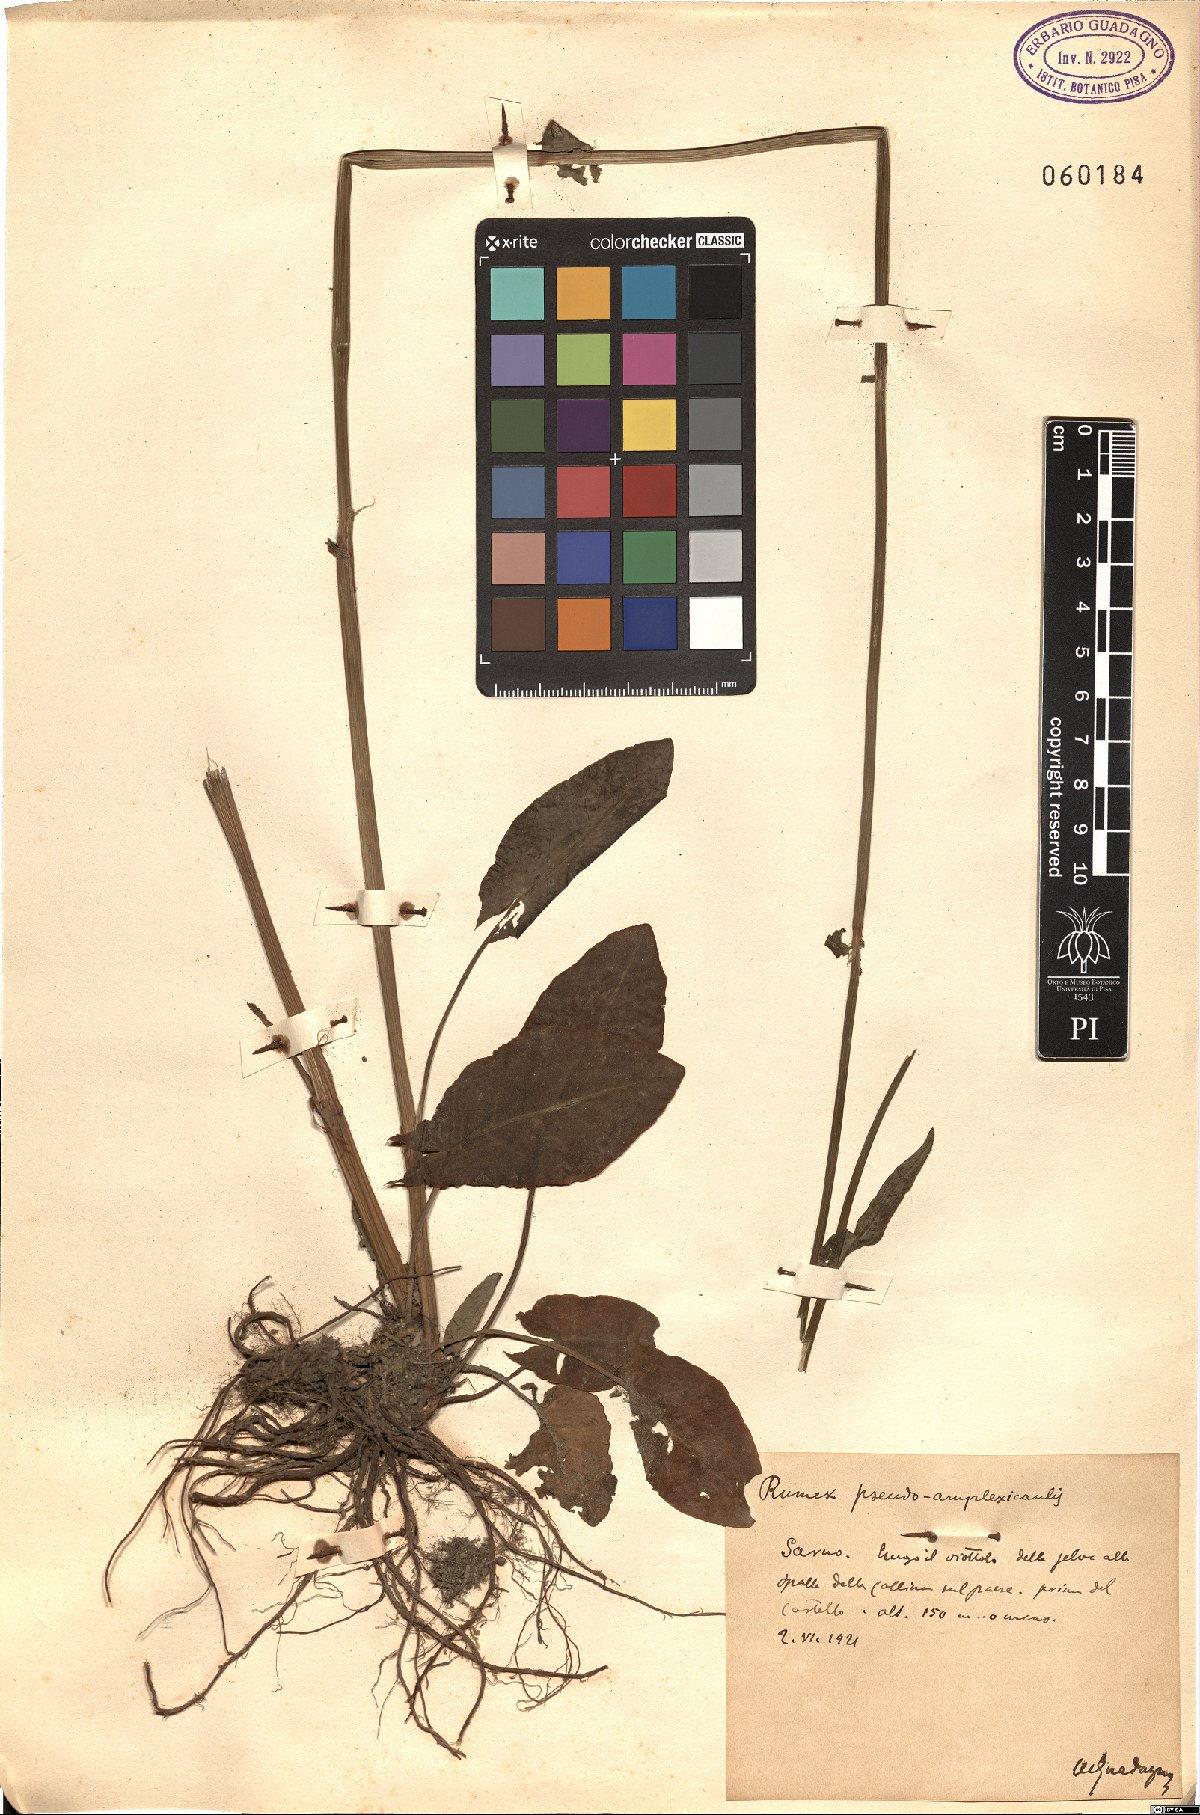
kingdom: Plantae
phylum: Tracheophyta
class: Magnoliopsida
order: Caryophyllales
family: Polygonaceae
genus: Rumex
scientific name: Rumex arifolius
